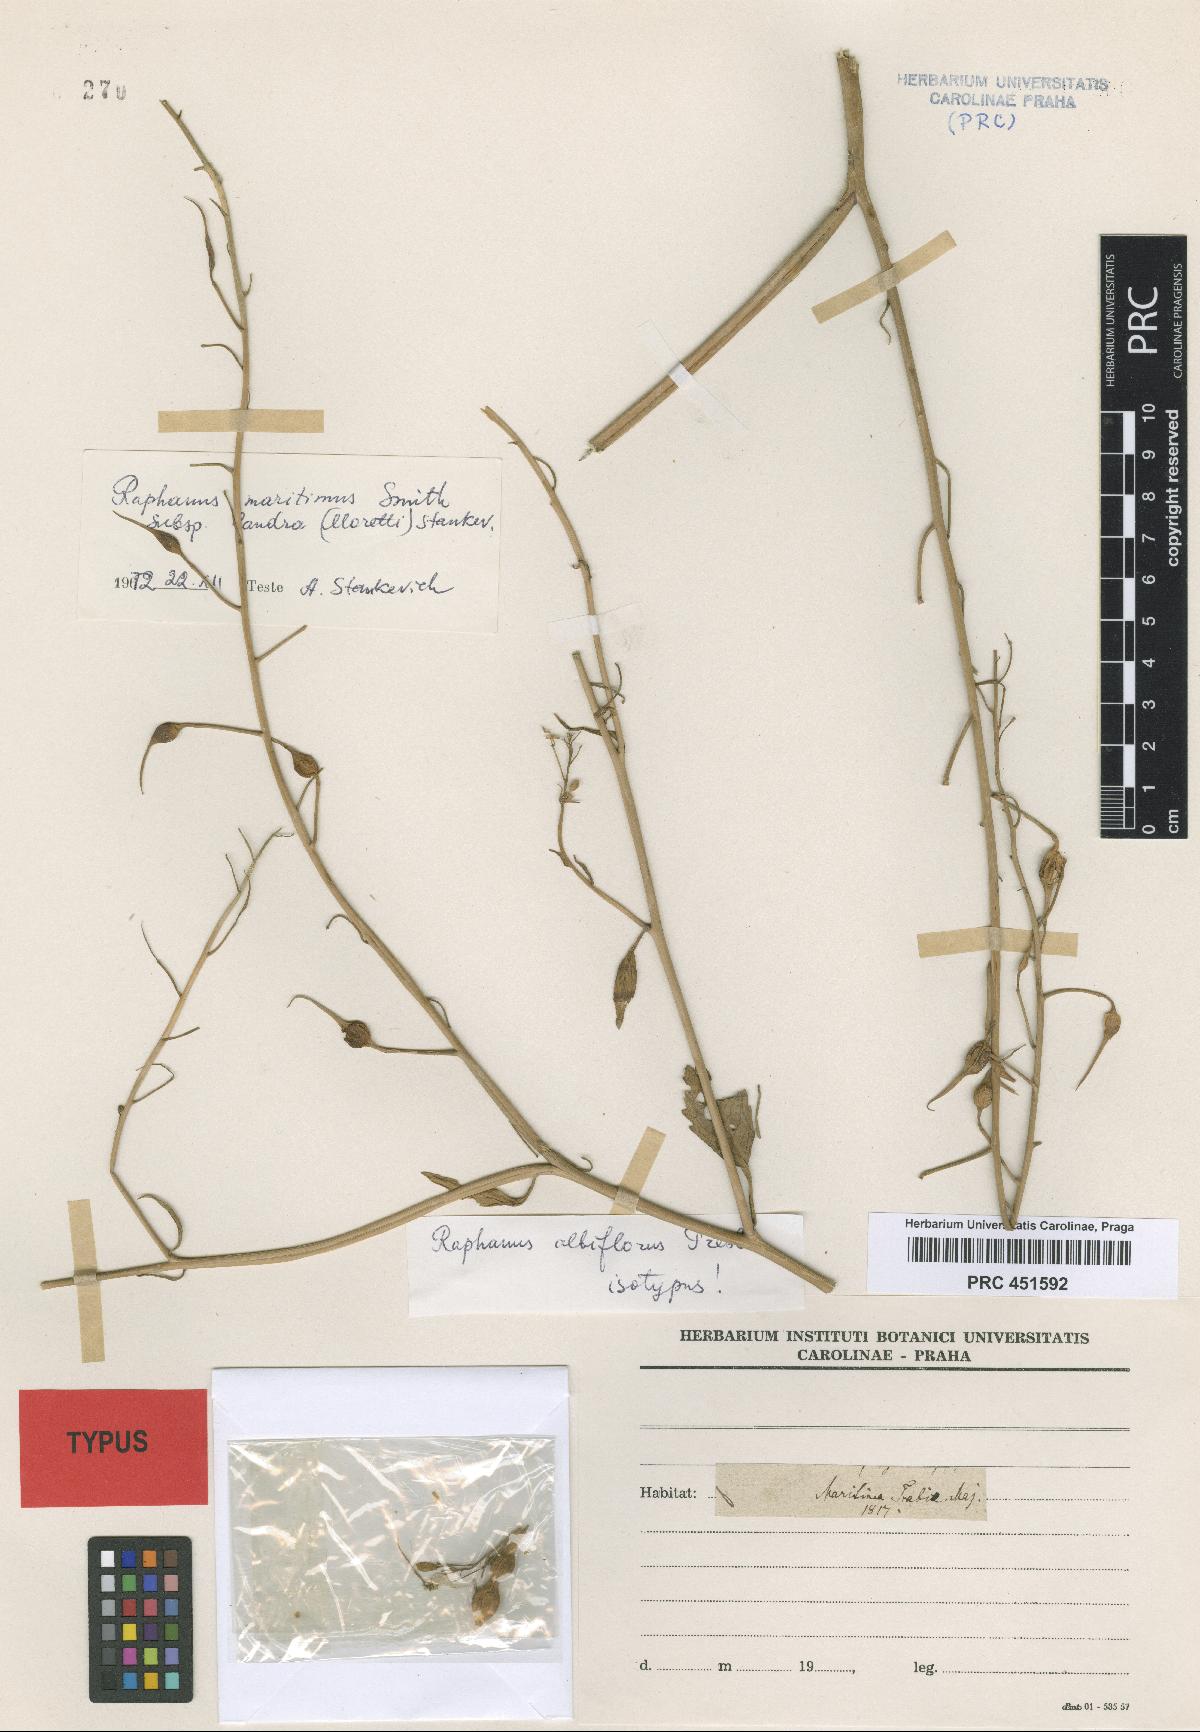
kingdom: Plantae
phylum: Tracheophyta
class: Magnoliopsida
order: Brassicales
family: Brassicaceae
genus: Raphanus
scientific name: Raphanus raphanistrum
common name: Wild radish
